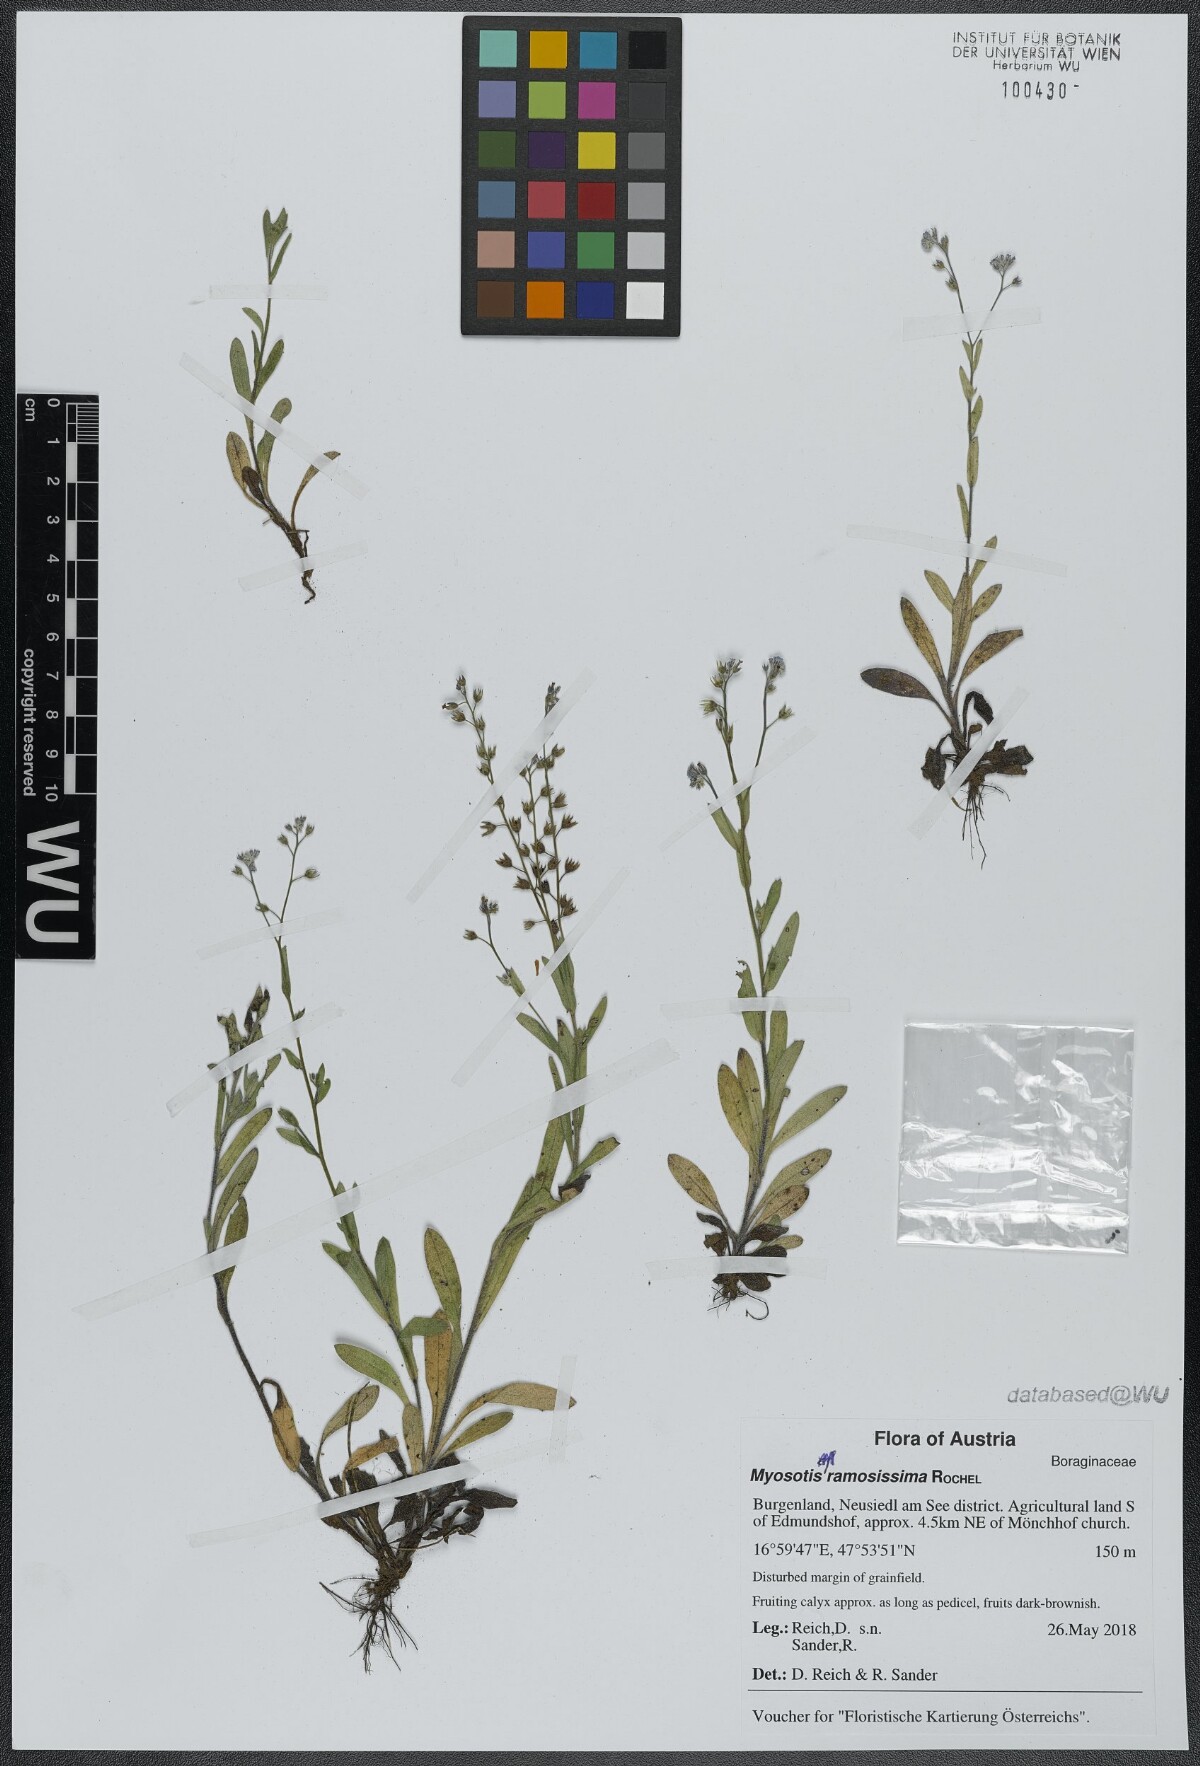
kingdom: Plantae
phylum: Tracheophyta
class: Magnoliopsida
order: Boraginales
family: Boraginaceae
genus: Myosotis
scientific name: Myosotis ramosissima
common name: Early forget-me-not
